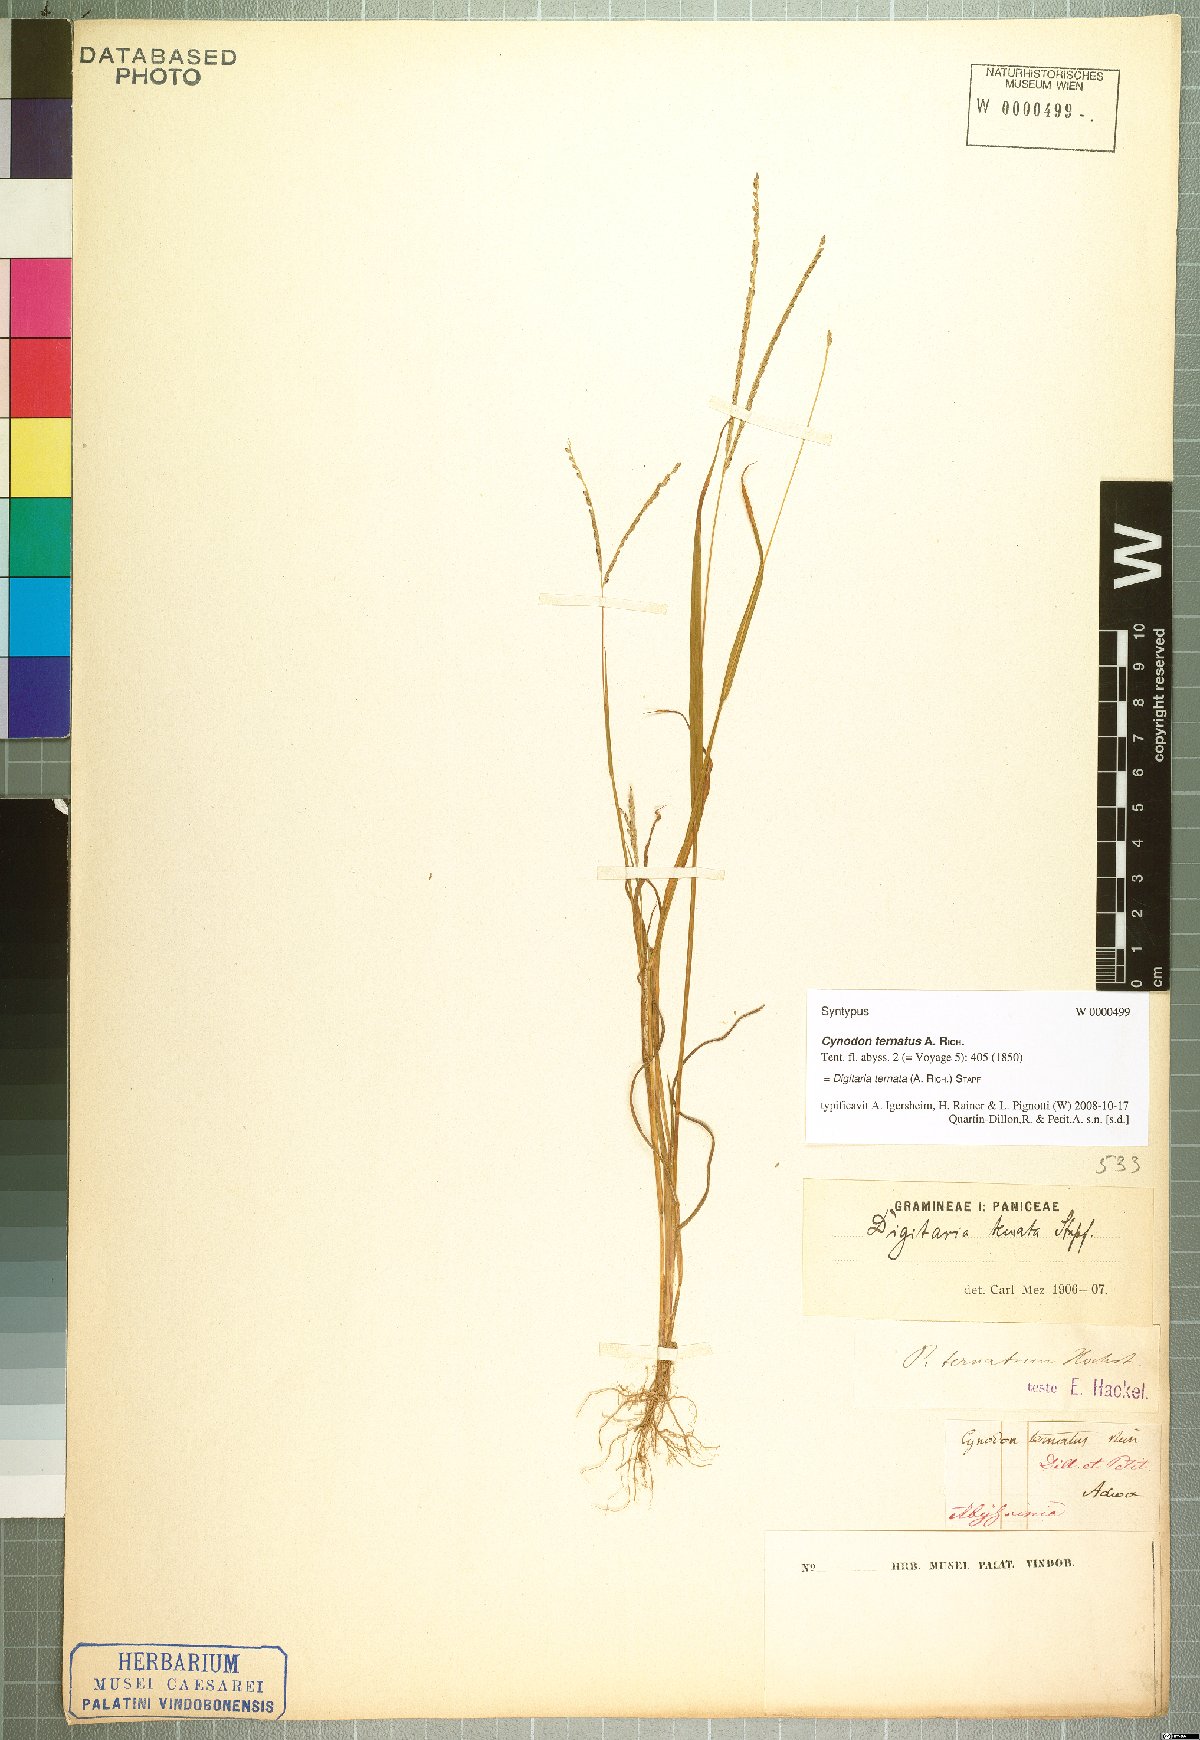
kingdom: Plantae
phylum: Tracheophyta
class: Liliopsida
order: Poales
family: Poaceae
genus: Digitaria
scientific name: Digitaria ternata
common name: Blackseed crabgrass
